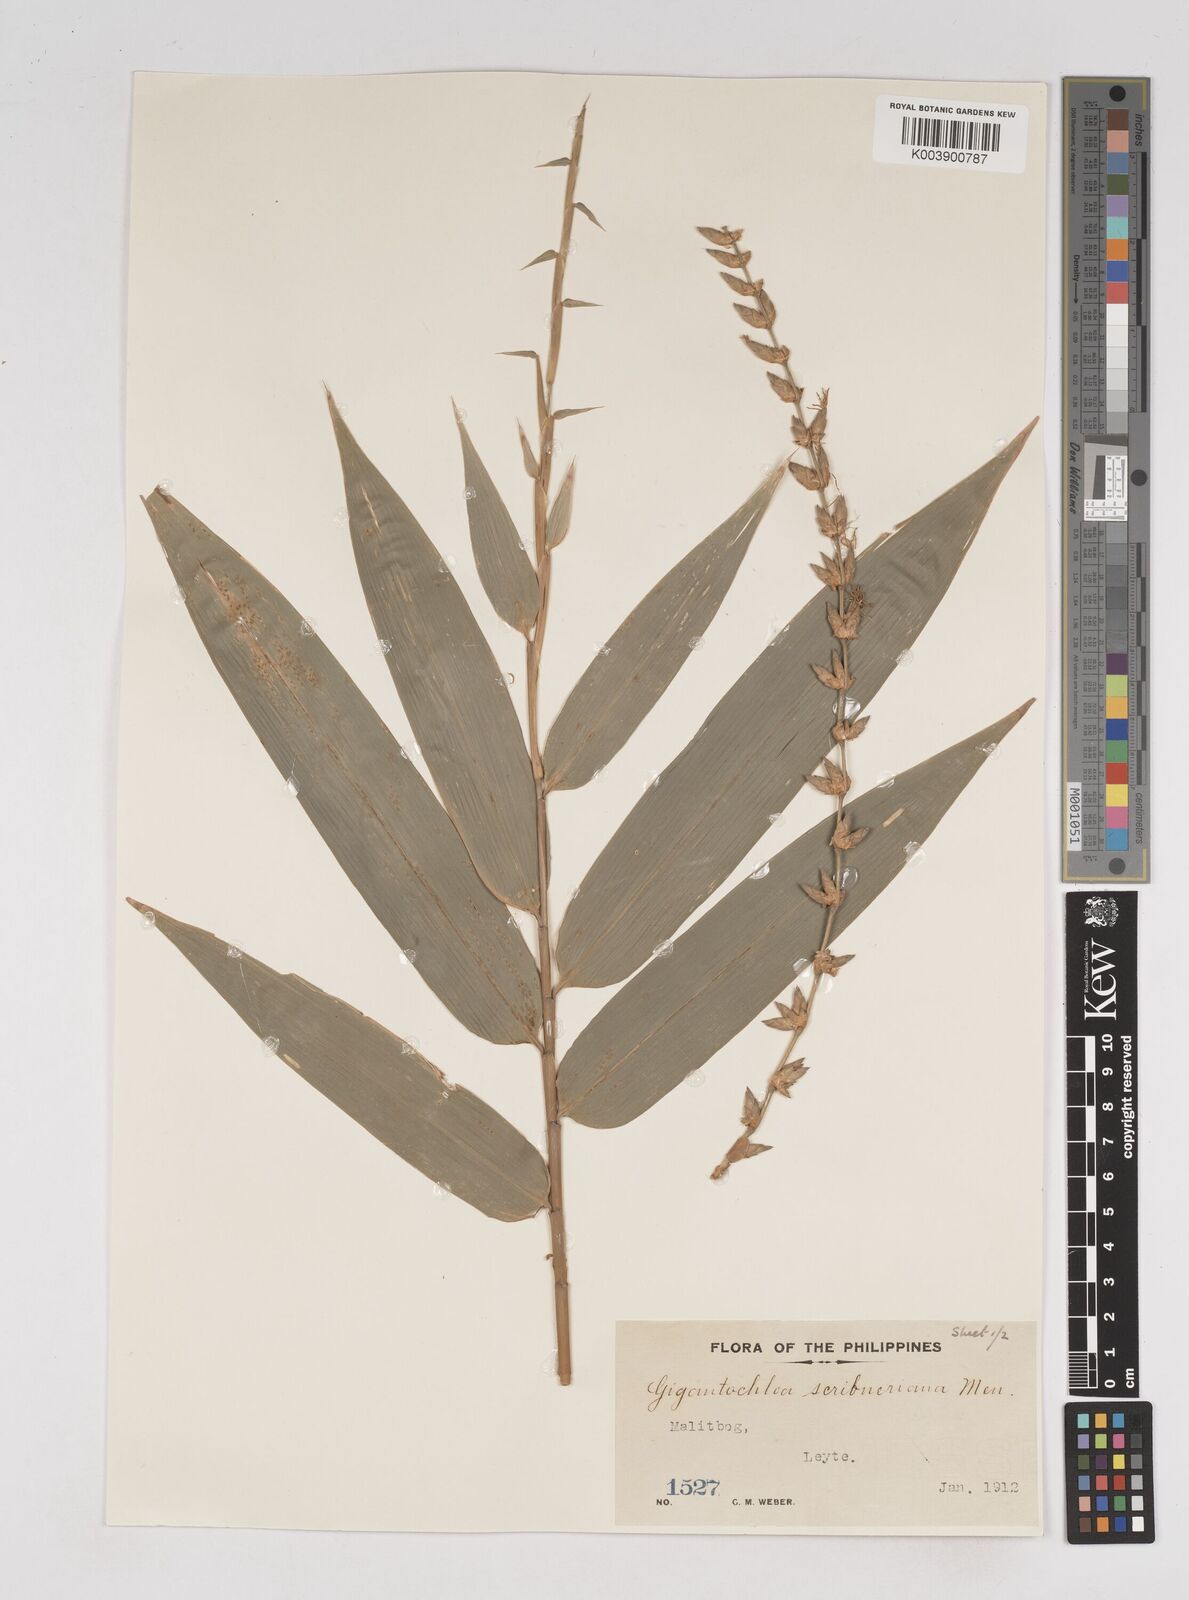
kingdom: Plantae
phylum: Tracheophyta
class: Liliopsida
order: Poales
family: Poaceae
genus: Gigantochloa
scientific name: Gigantochloa
